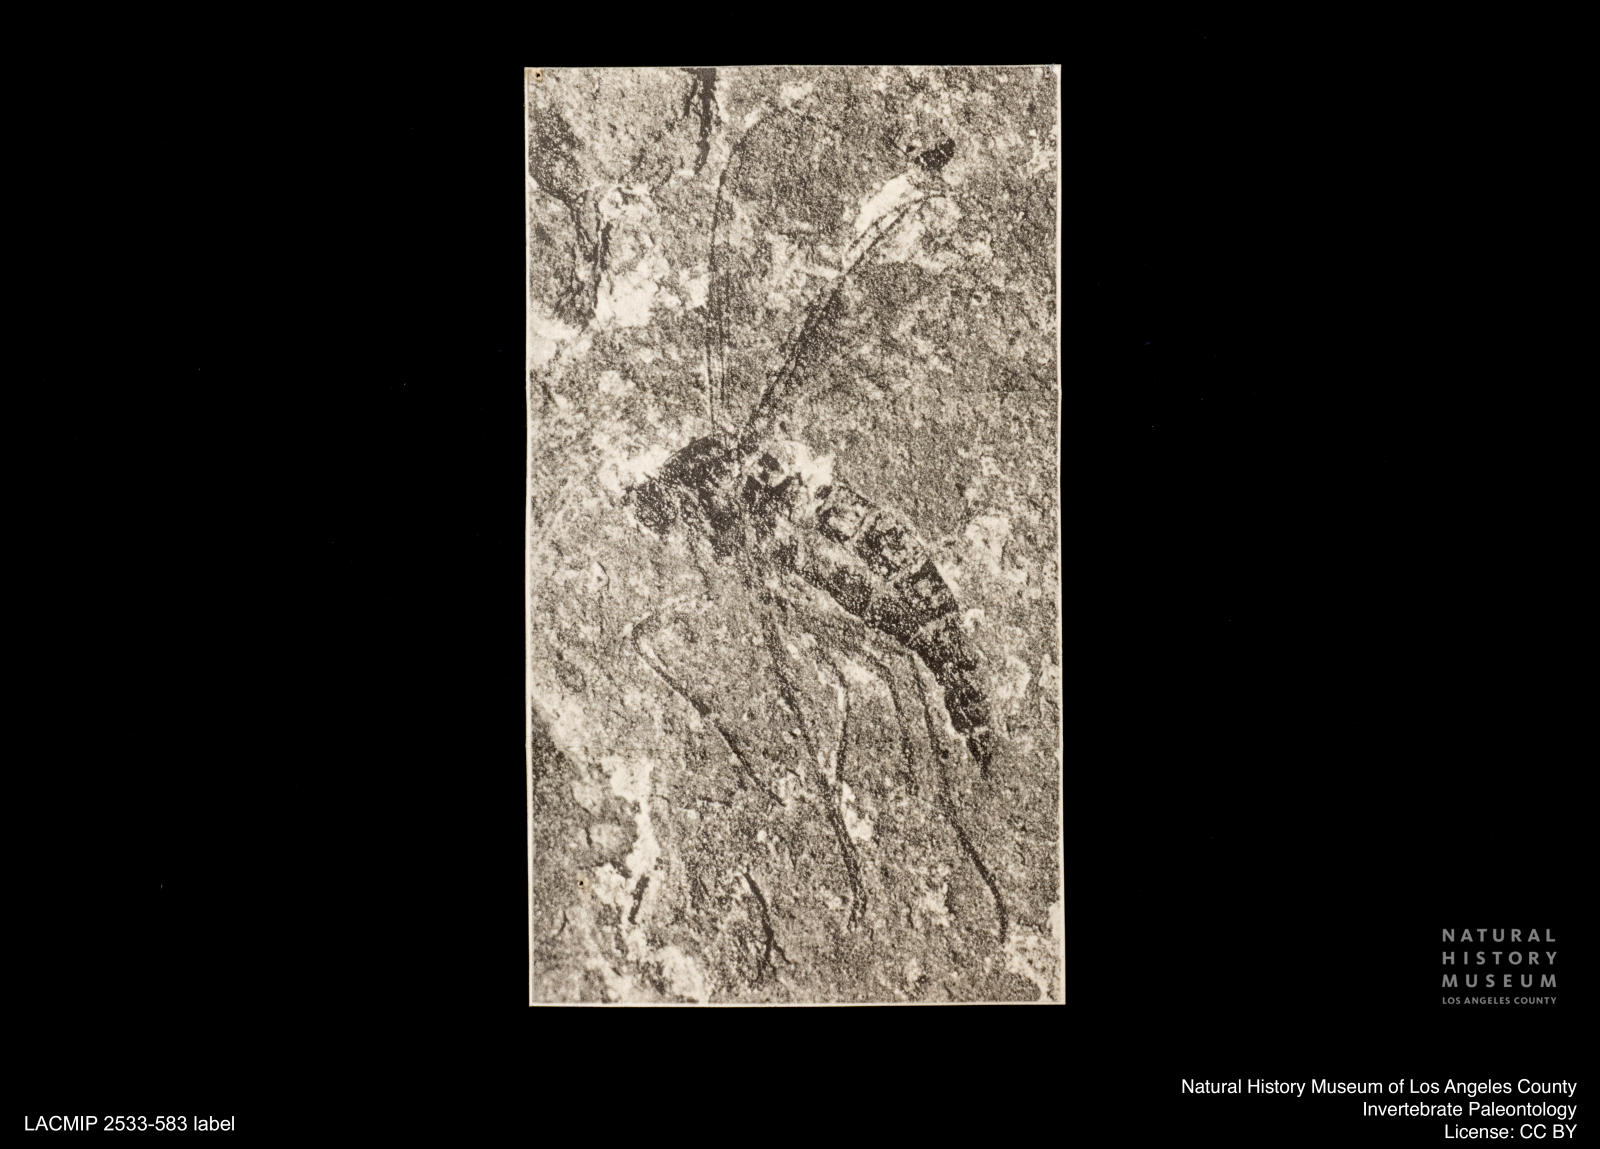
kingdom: Animalia
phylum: Arthropoda
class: Insecta
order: Diptera
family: Sciaridae
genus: Pseudolycoriella
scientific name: Pseudolycoriella jucunda
